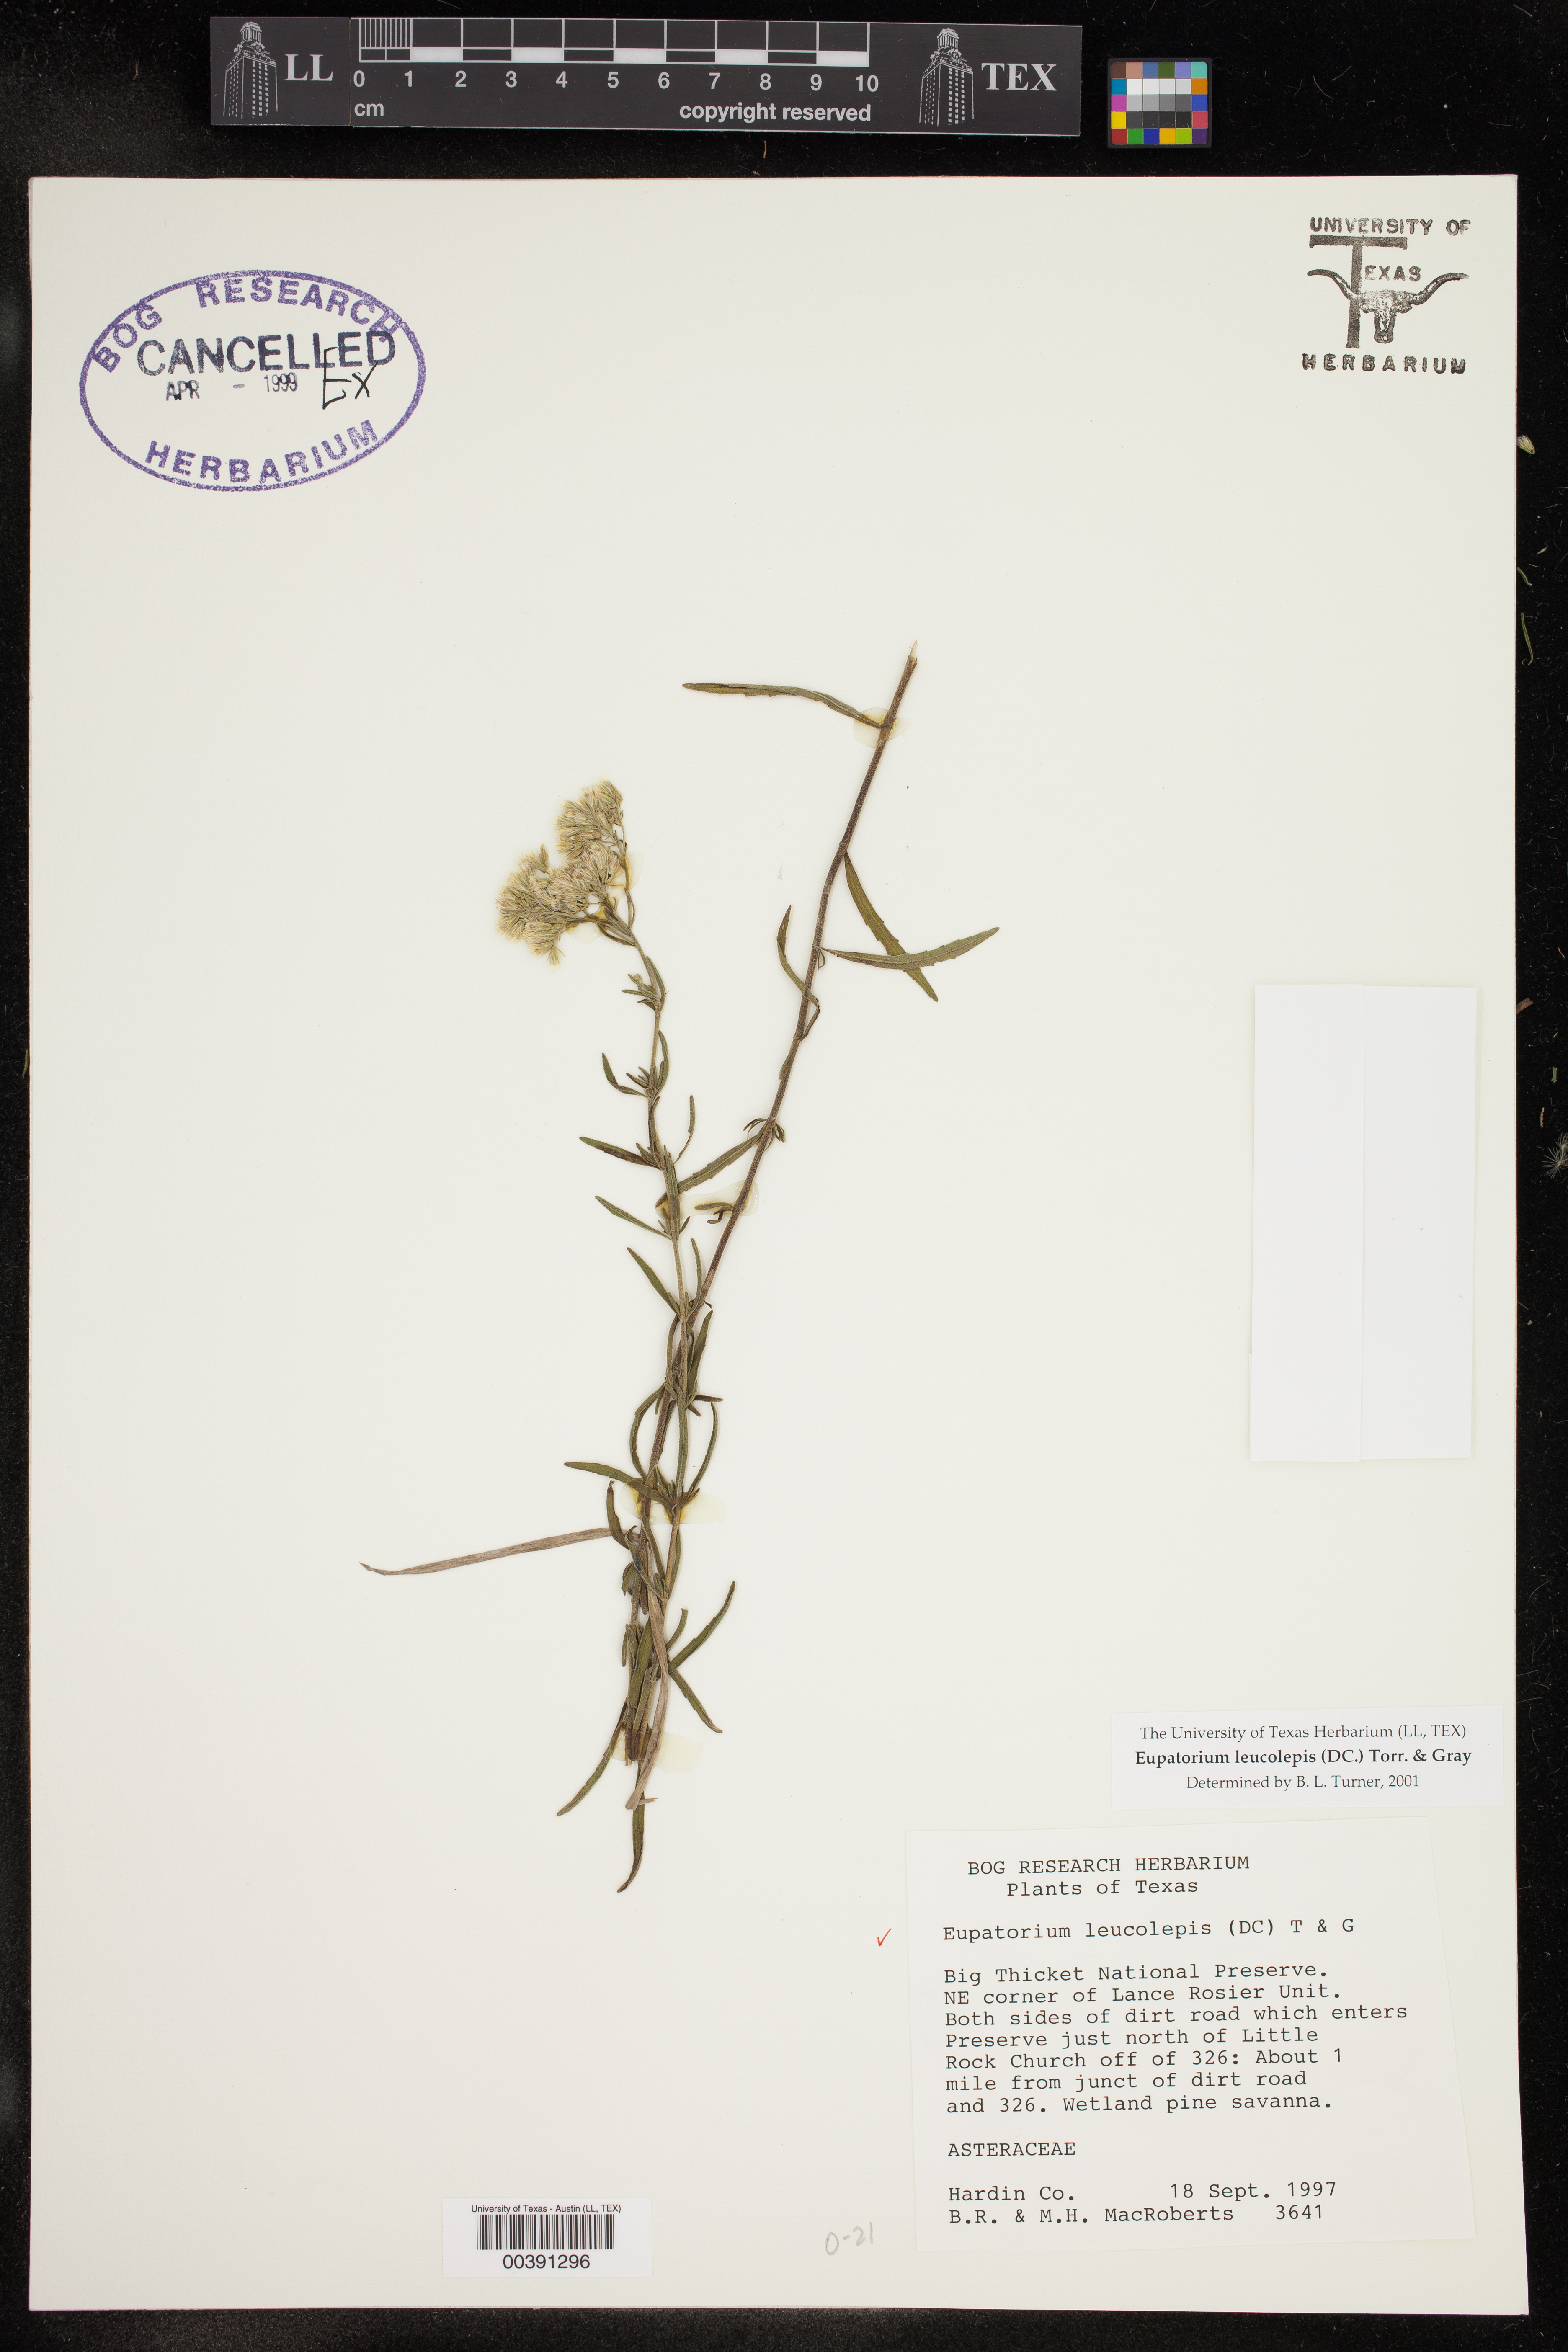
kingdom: Plantae
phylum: Tracheophyta
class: Magnoliopsida
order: Asterales
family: Asteraceae
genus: Eupatorium
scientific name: Eupatorium leucolepis
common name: Justiceweed
